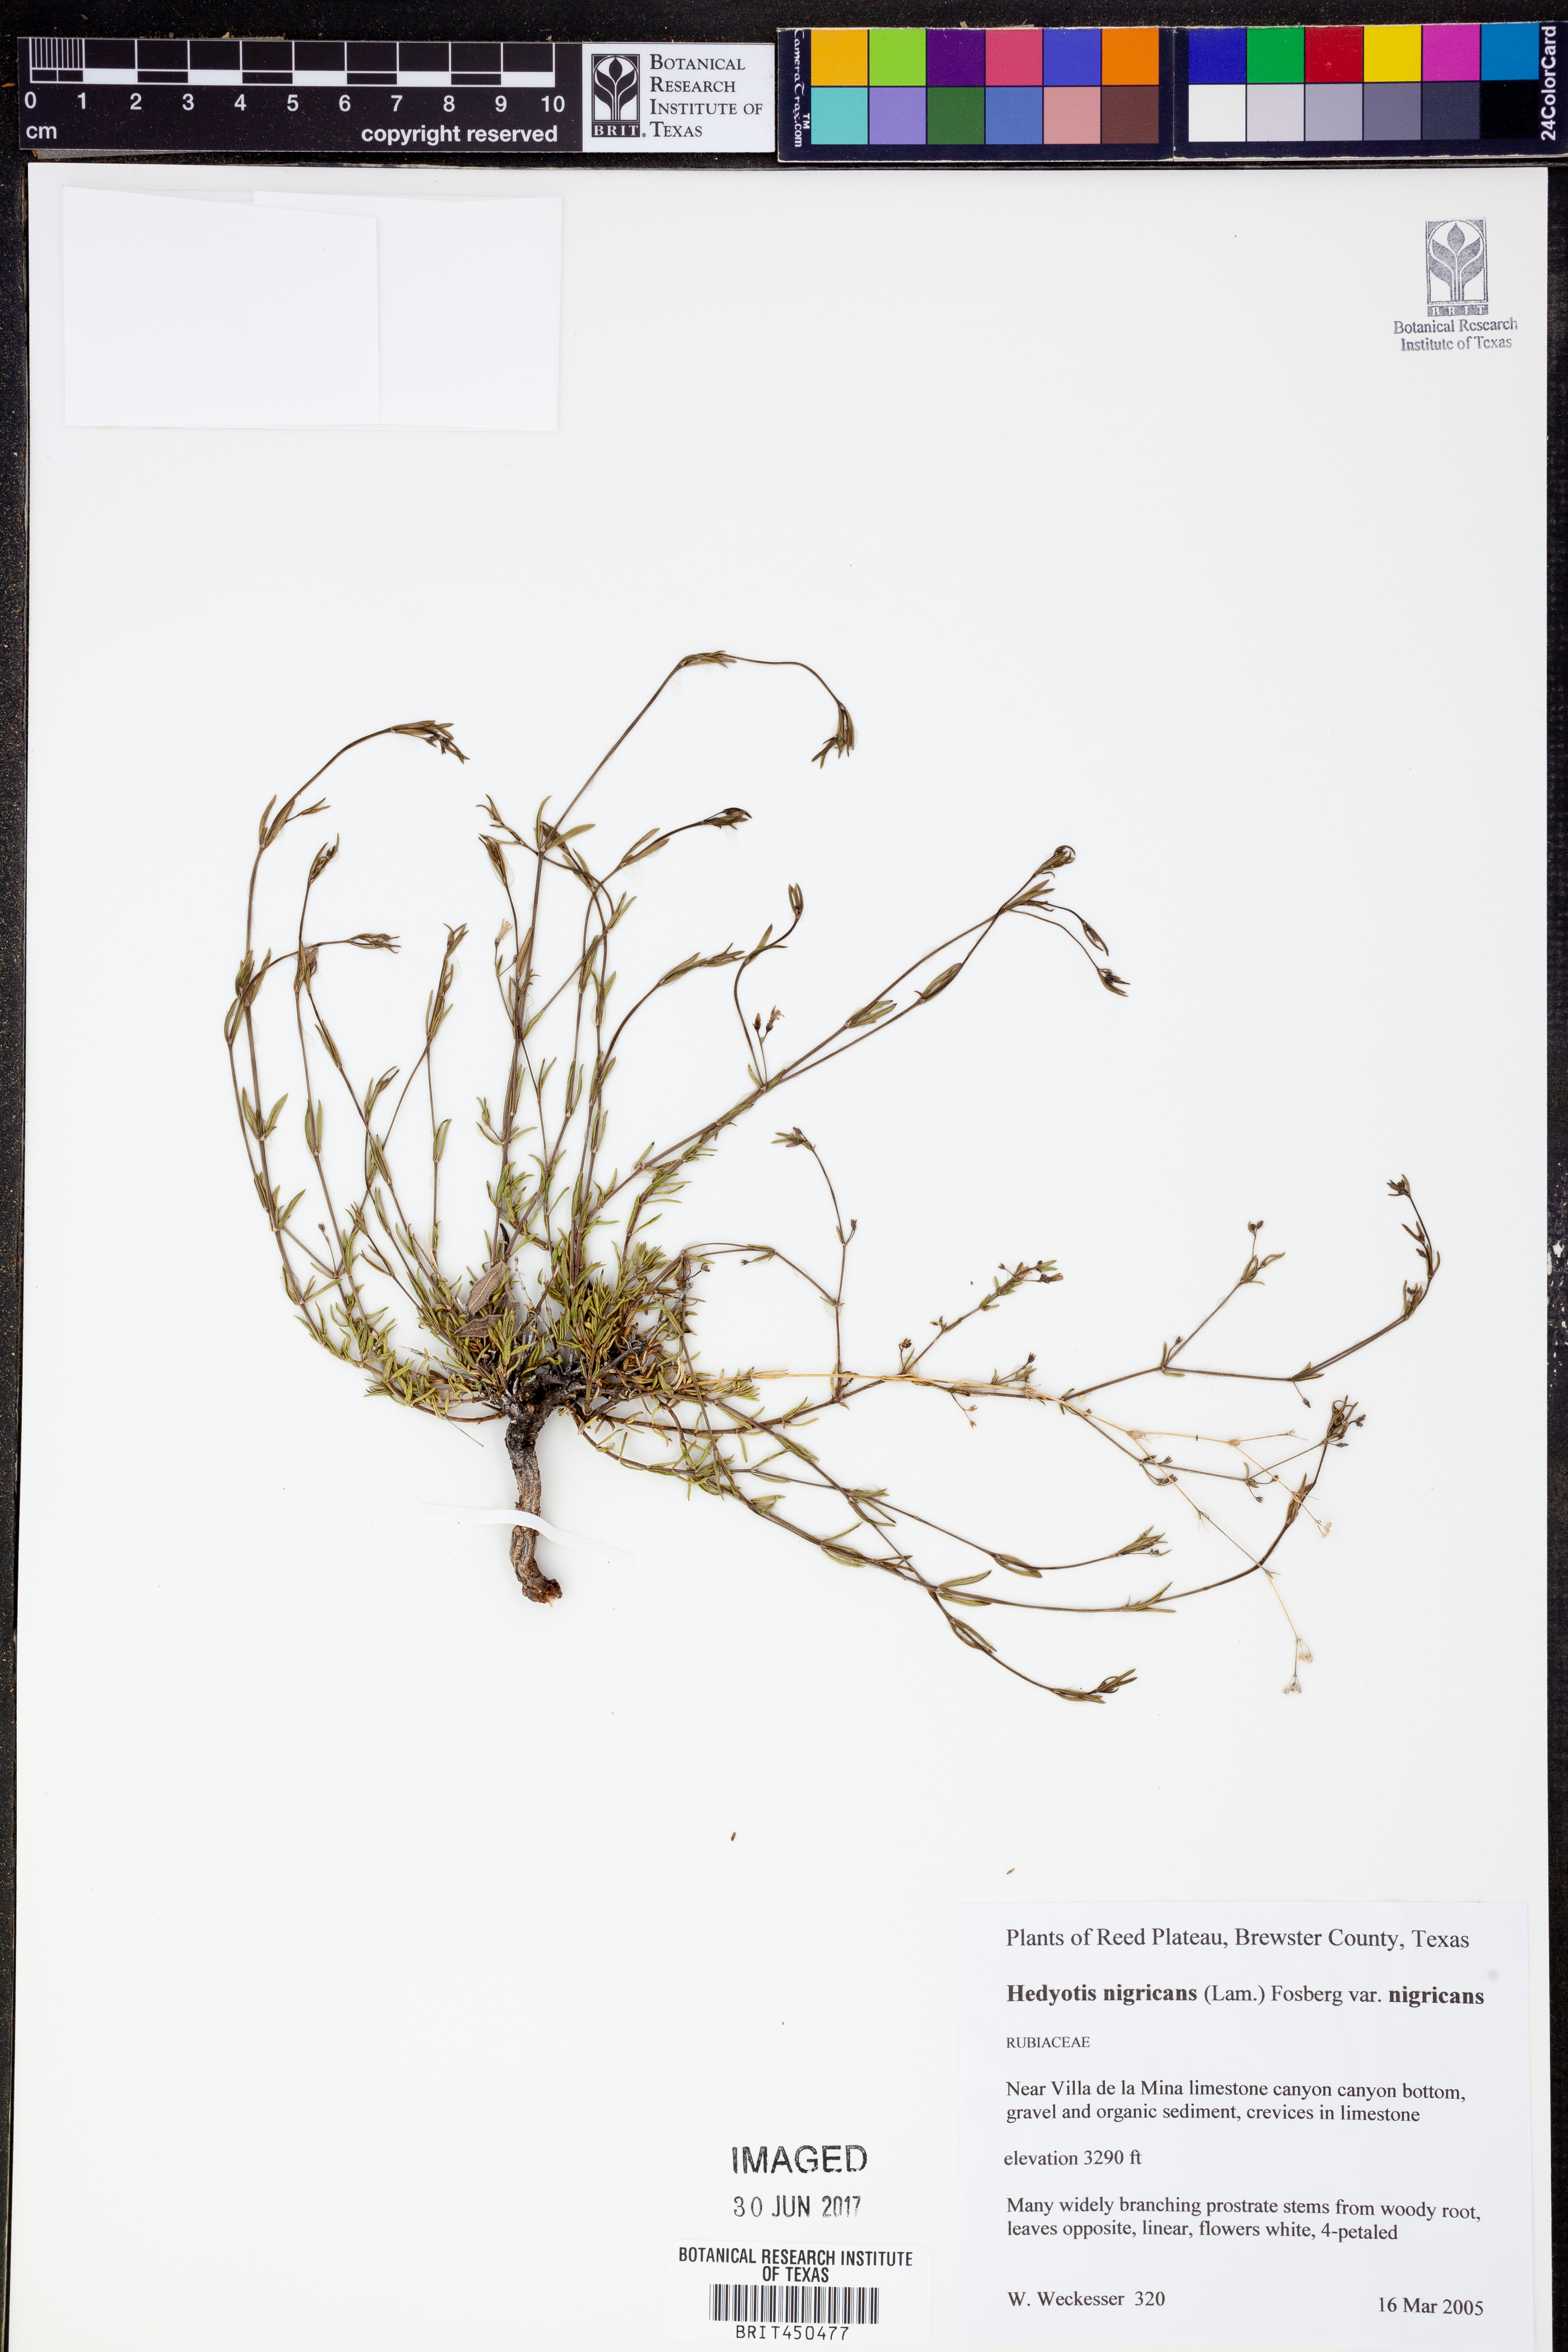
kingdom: Plantae
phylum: Tracheophyta
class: Magnoliopsida
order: Gentianales
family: Rubiaceae
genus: Stenaria
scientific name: Stenaria nigricans
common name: Diamondflowers
